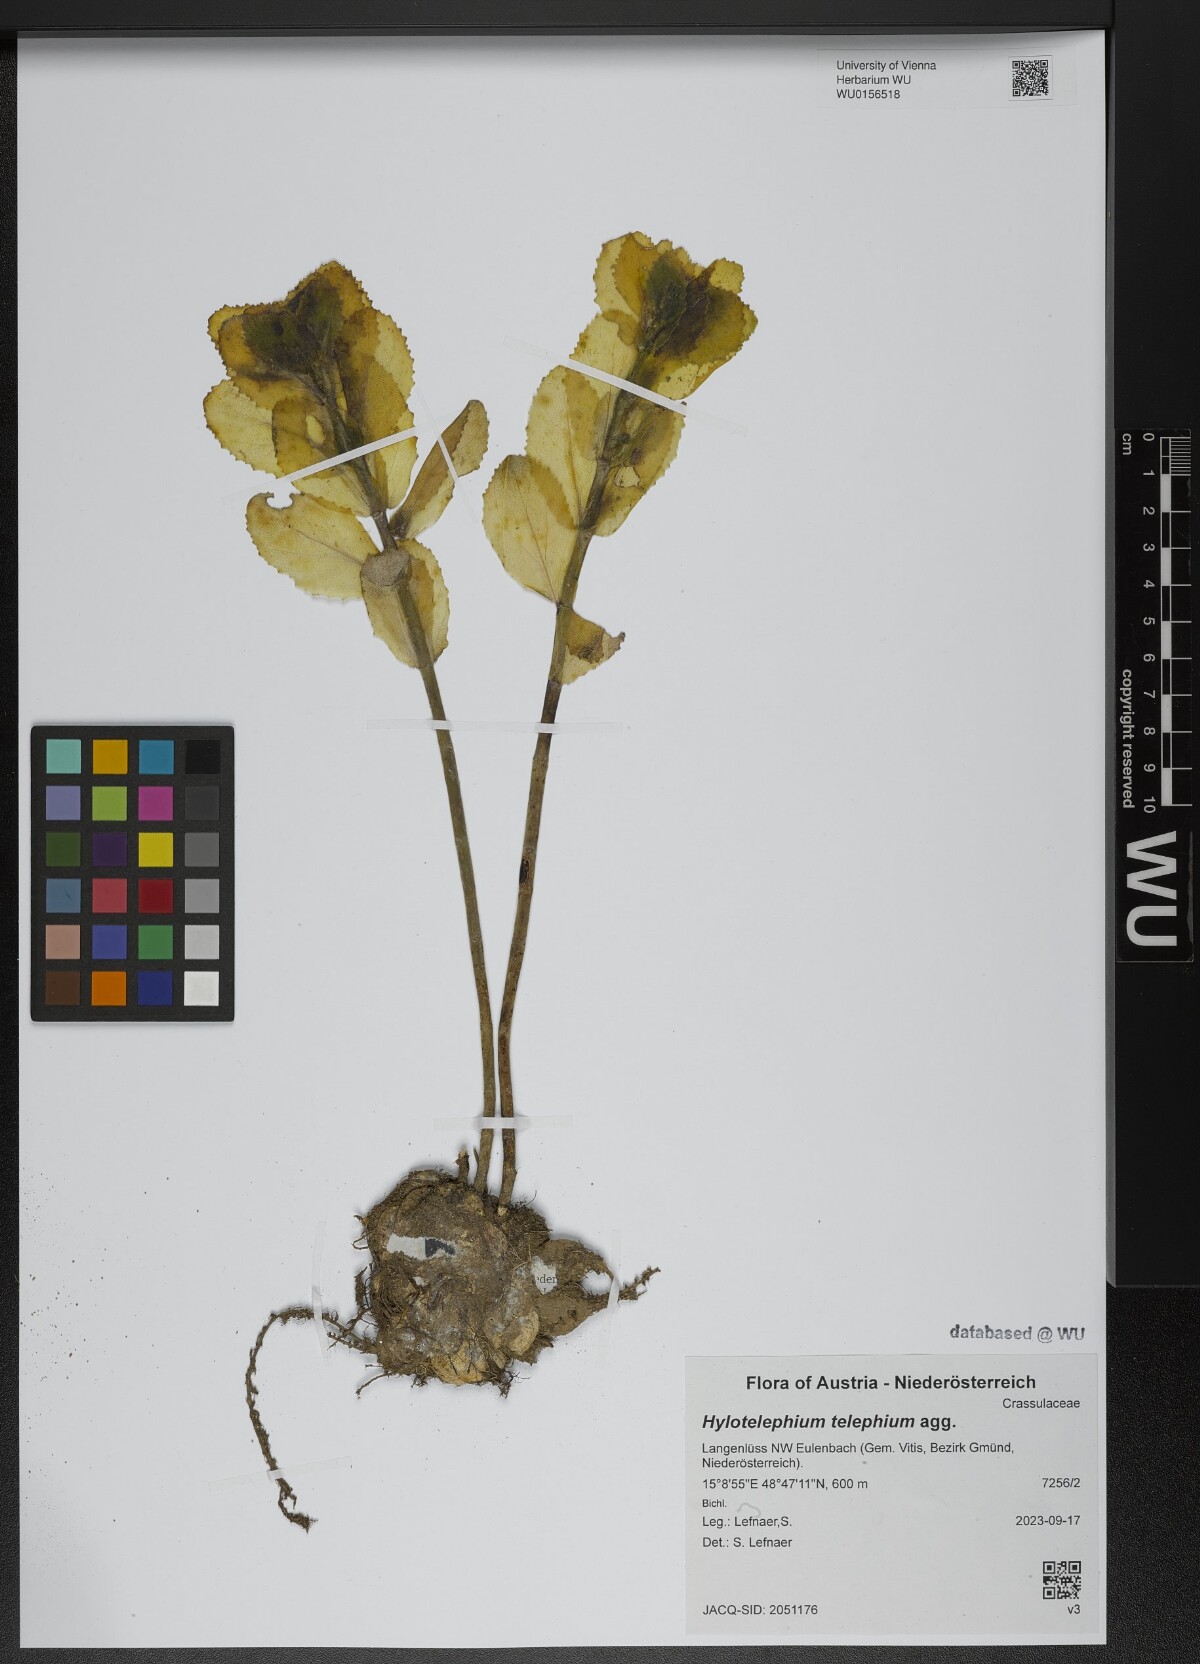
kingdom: Plantae
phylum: Tracheophyta
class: Magnoliopsida
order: Saxifragales
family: Crassulaceae
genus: Hylotelephium
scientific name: Hylotelephium telephium
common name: Live-forever
